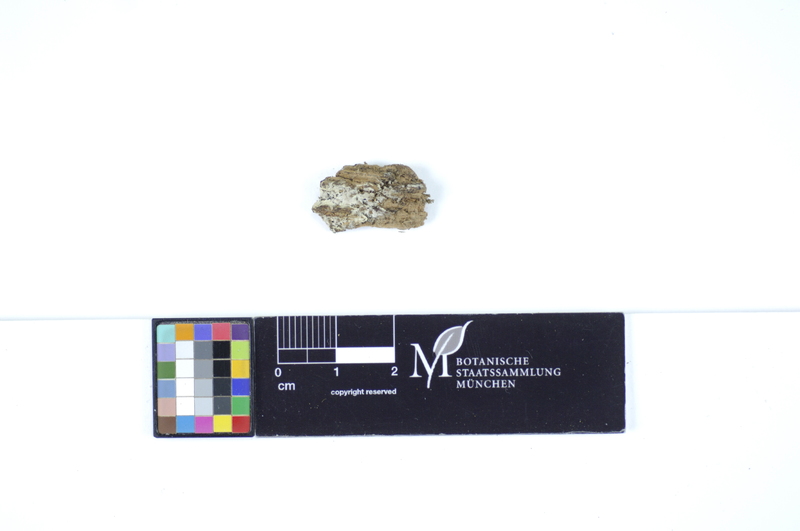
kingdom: Plantae
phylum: Tracheophyta
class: Pinopsida
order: Pinales
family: Pinaceae
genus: Picea
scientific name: Picea
